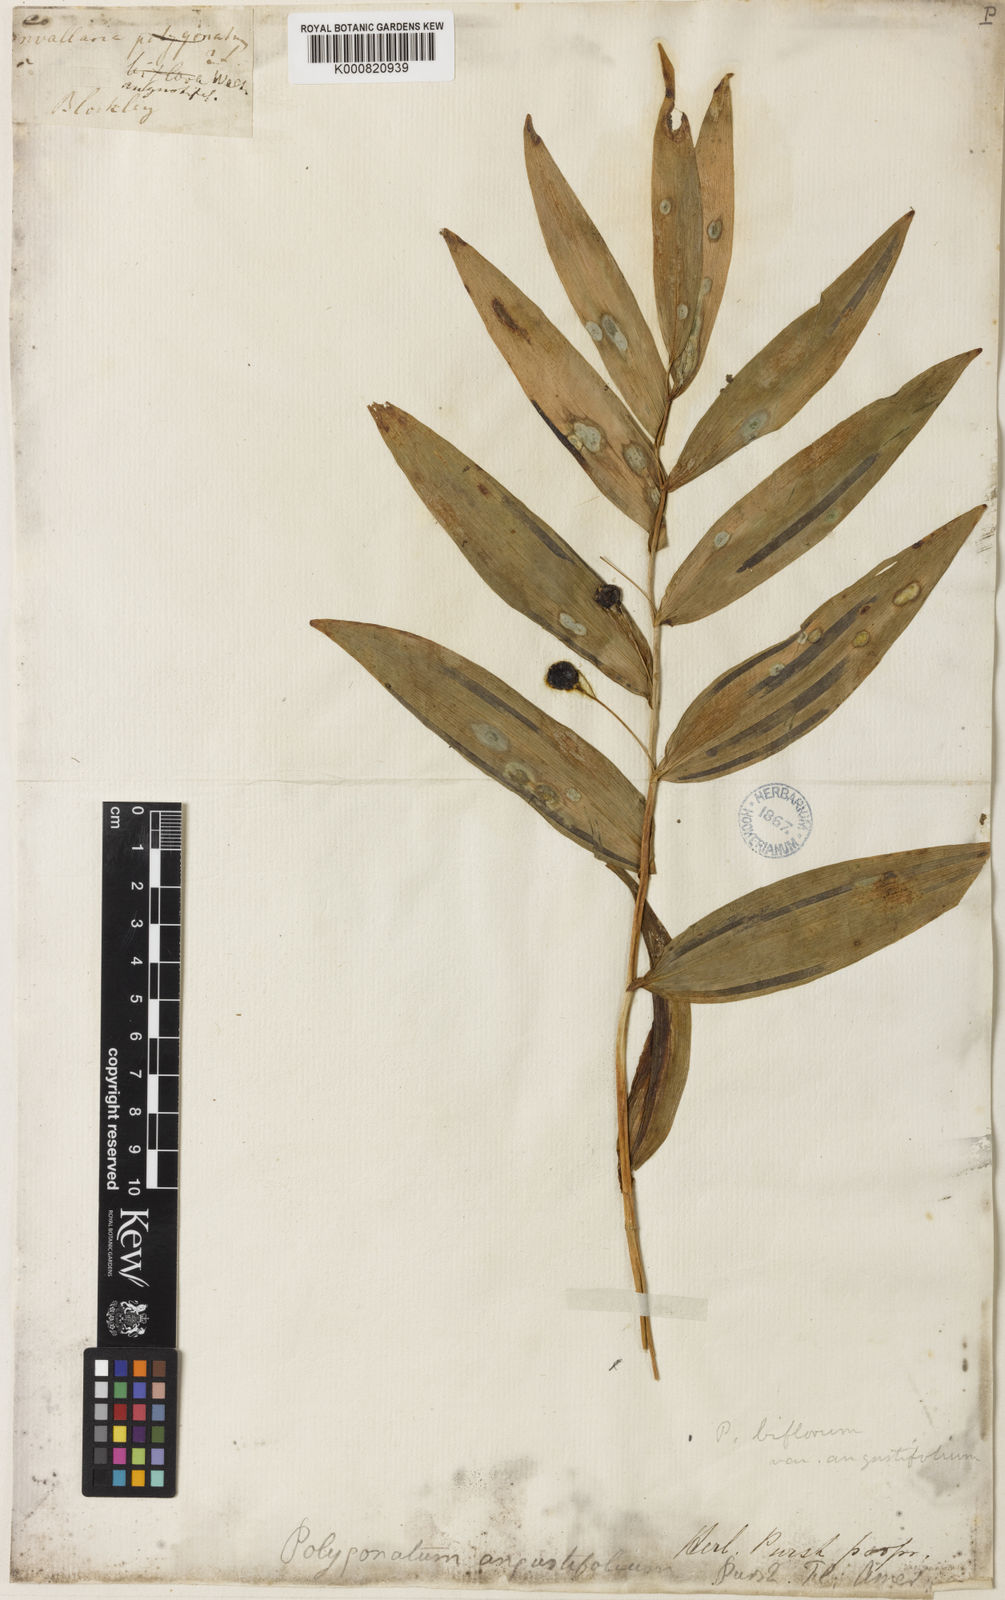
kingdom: Plantae
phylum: Tracheophyta
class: Liliopsida
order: Asparagales
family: Asparagaceae
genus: Polygonatum
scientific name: Polygonatum biflorum
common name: American solomon's-seal
